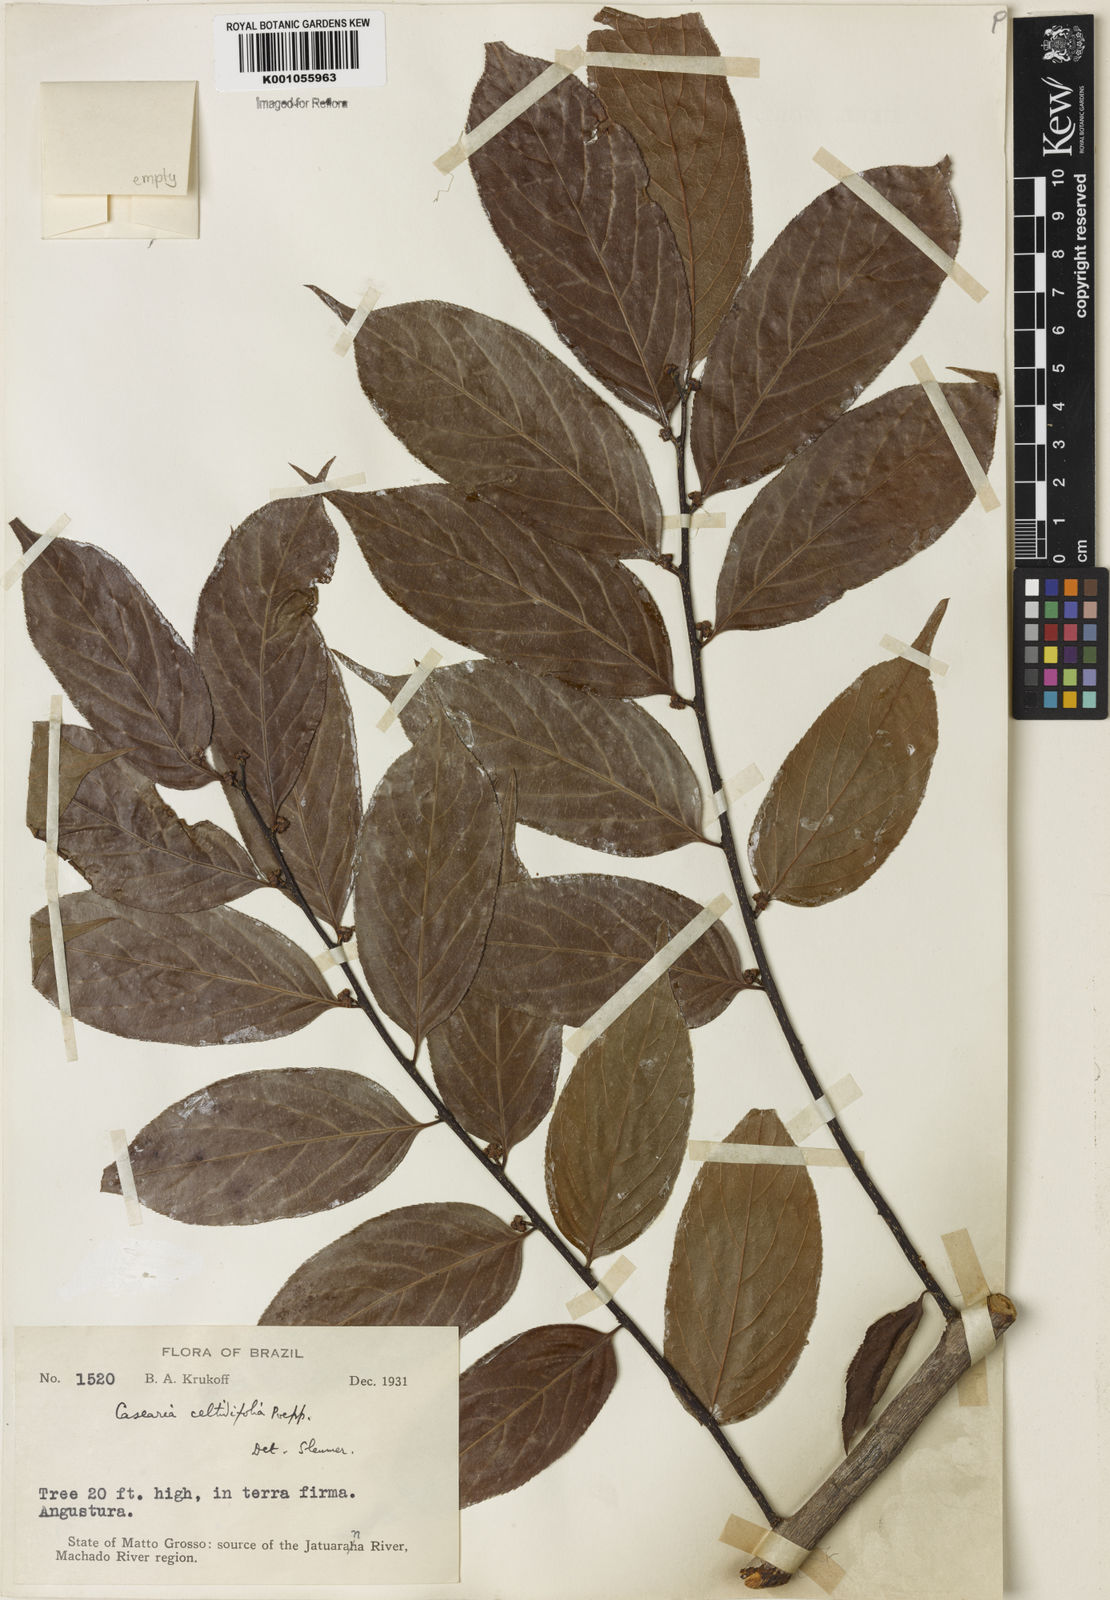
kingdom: Plantae
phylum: Tracheophyta
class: Magnoliopsida
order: Malpighiales
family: Salicaceae
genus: Casearia
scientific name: Casearia ulmifolia
